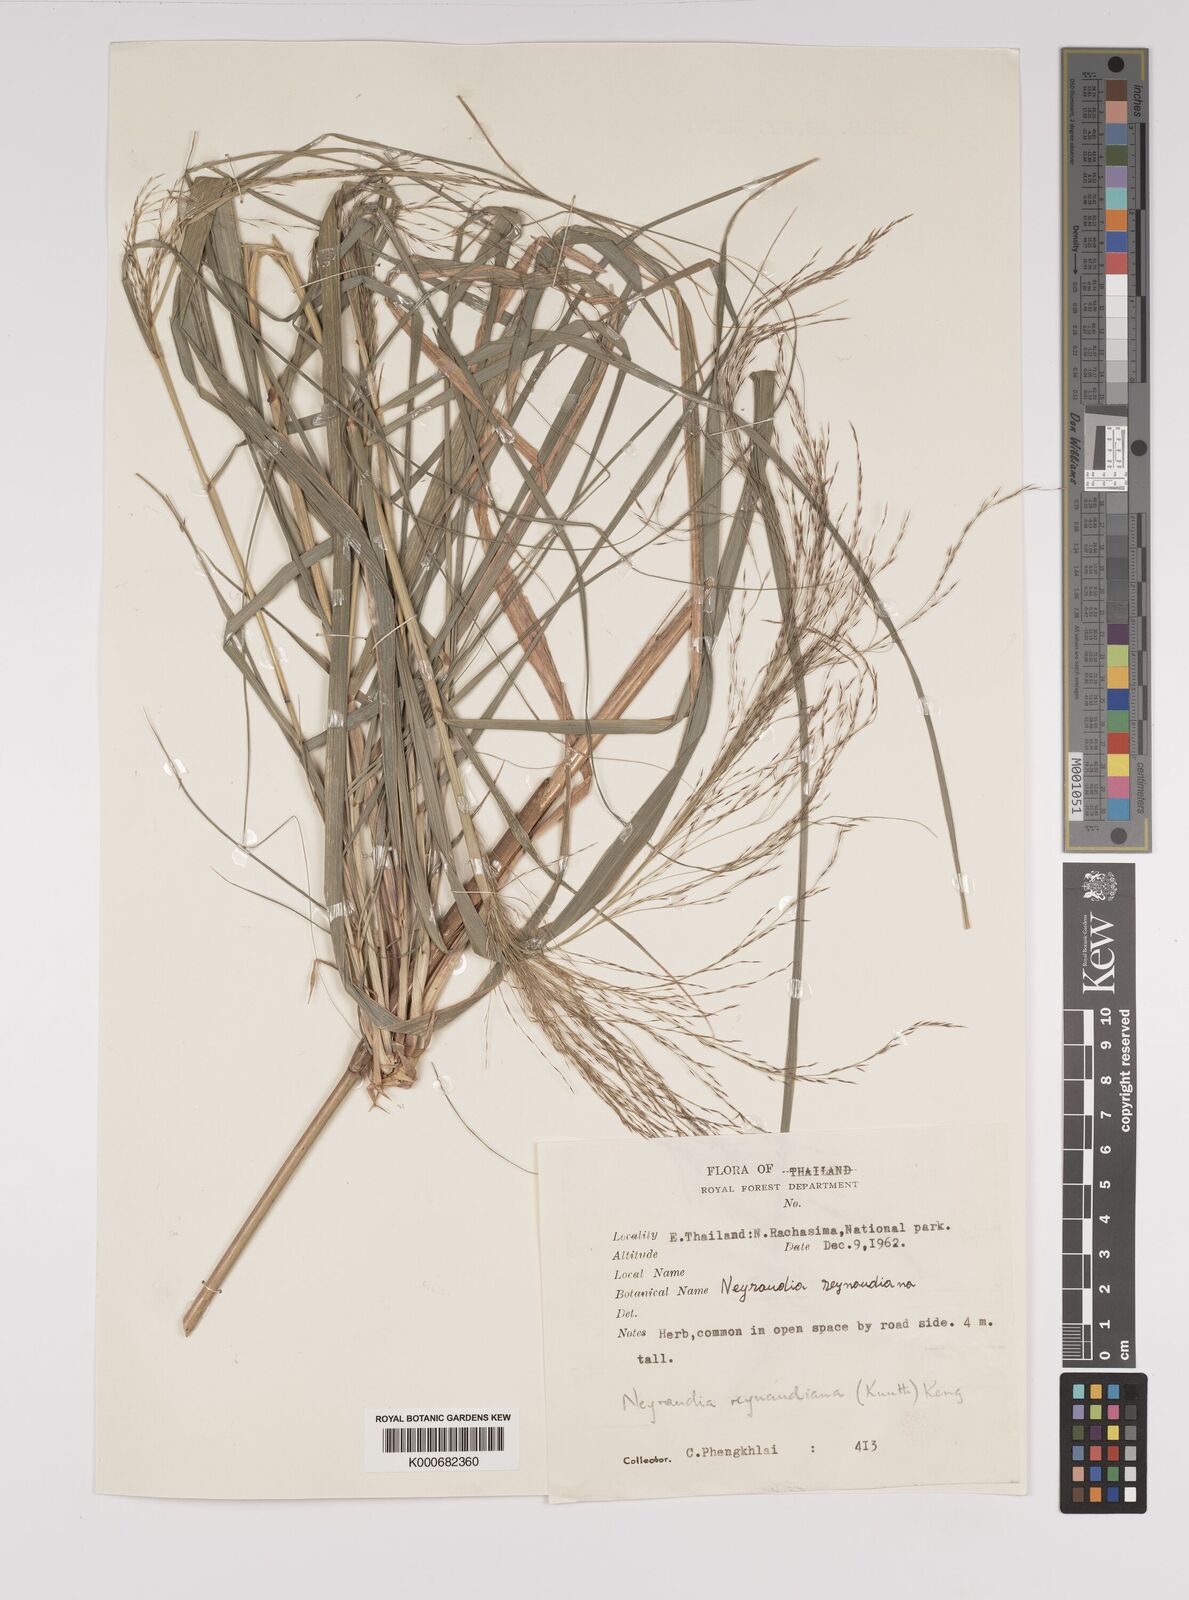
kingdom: Plantae
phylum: Tracheophyta
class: Liliopsida
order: Poales
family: Poaceae
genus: Neyraudia
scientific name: Neyraudia reynaudiana
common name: Silkreed
